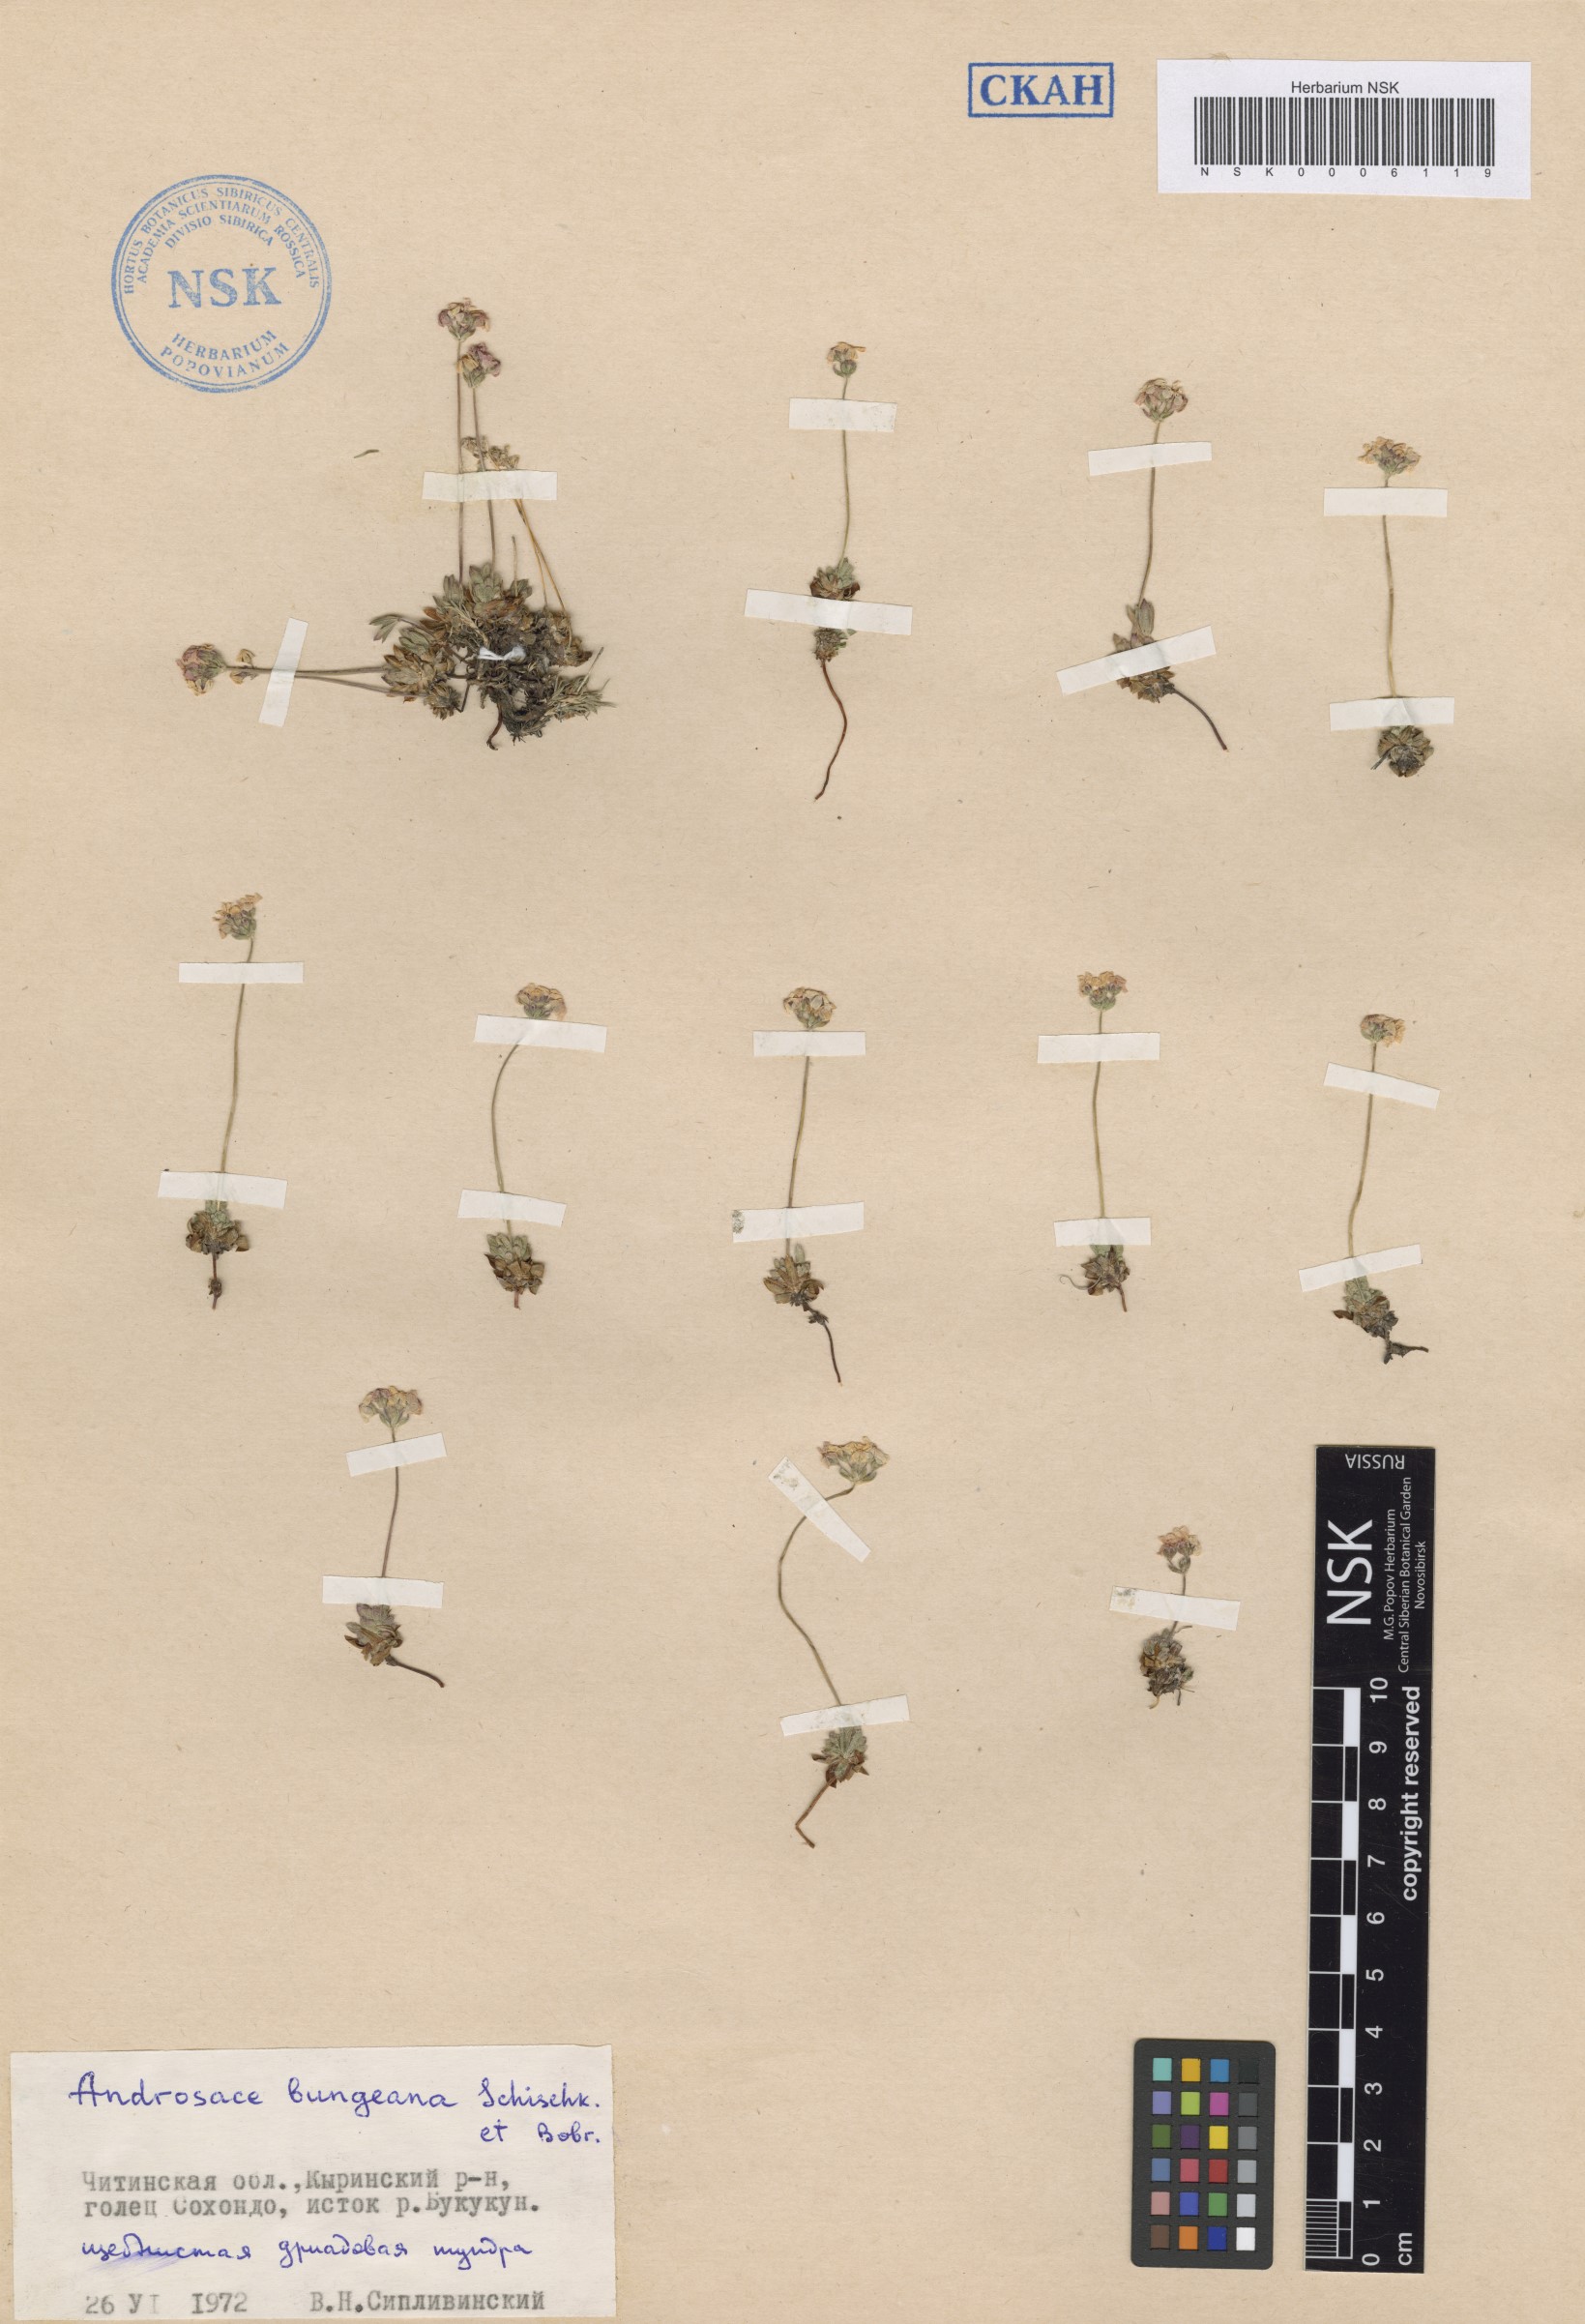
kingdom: Plantae
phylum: Tracheophyta
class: Magnoliopsida
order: Ericales
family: Primulaceae
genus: Androsace
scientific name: Androsace bungeana
